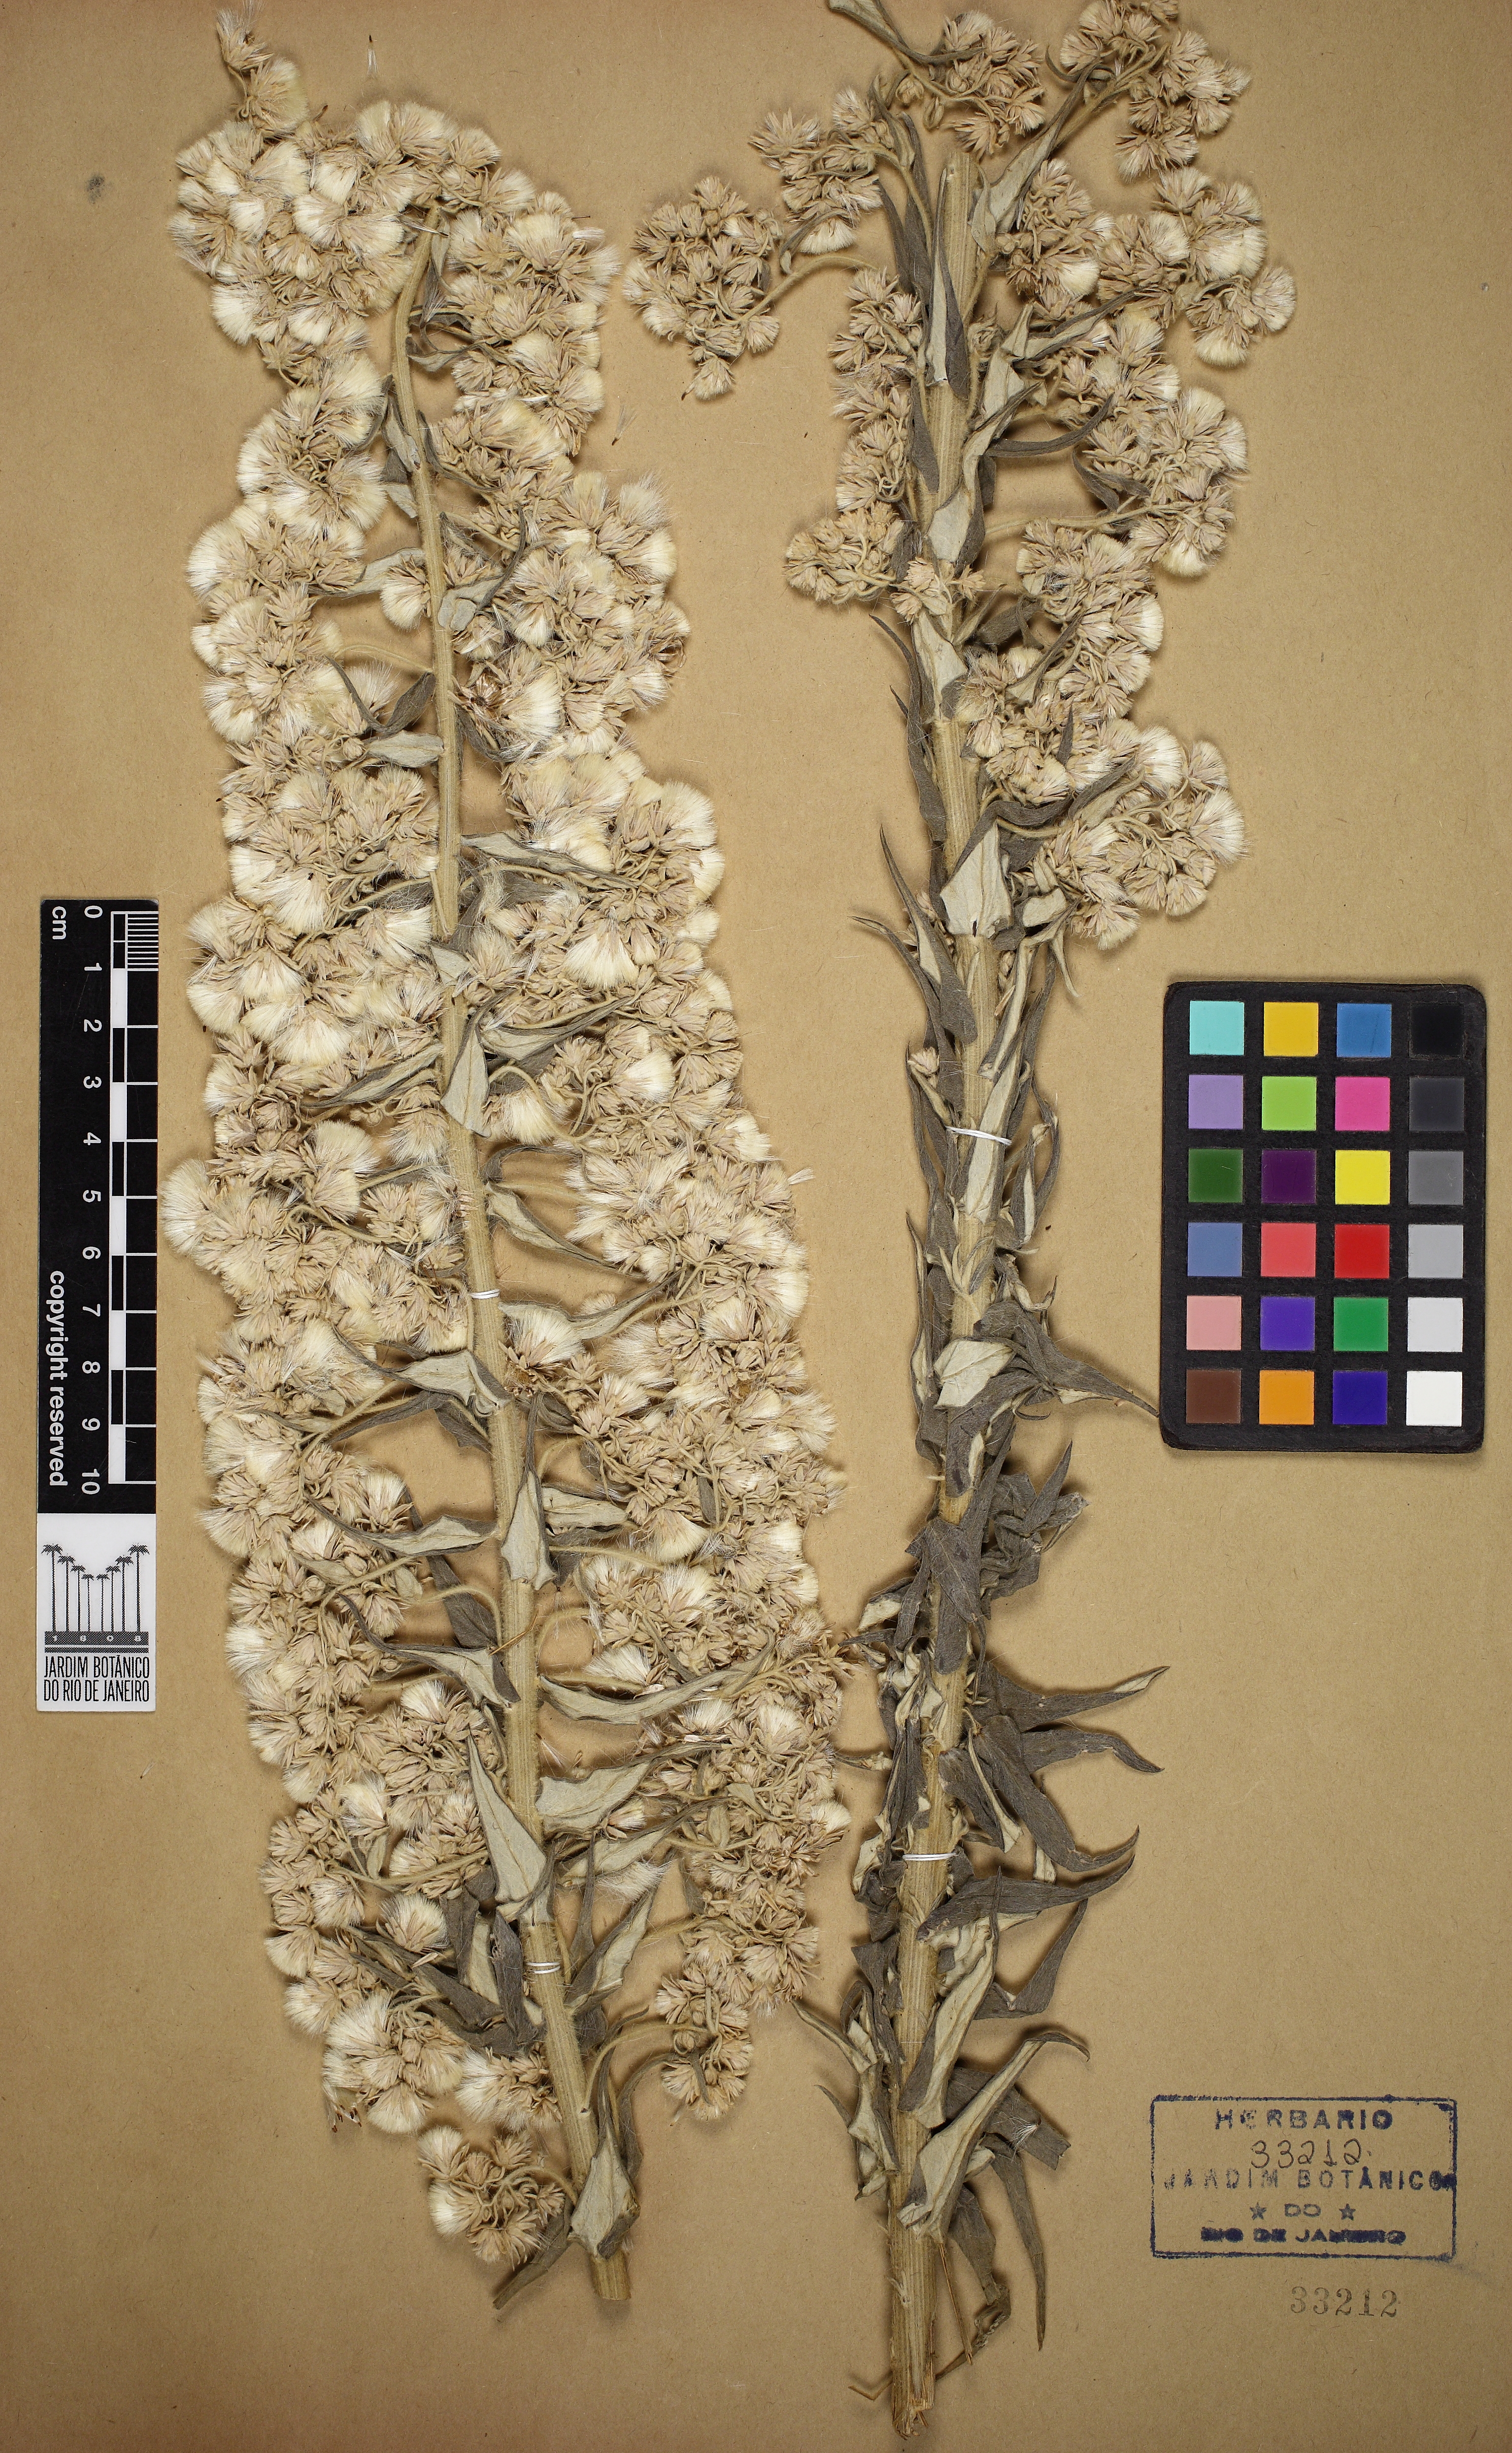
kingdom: Plantae
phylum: Tracheophyta
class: Magnoliopsida
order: Asterales
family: Asteraceae
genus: Baccharis
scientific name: Baccharis helichrysoides
